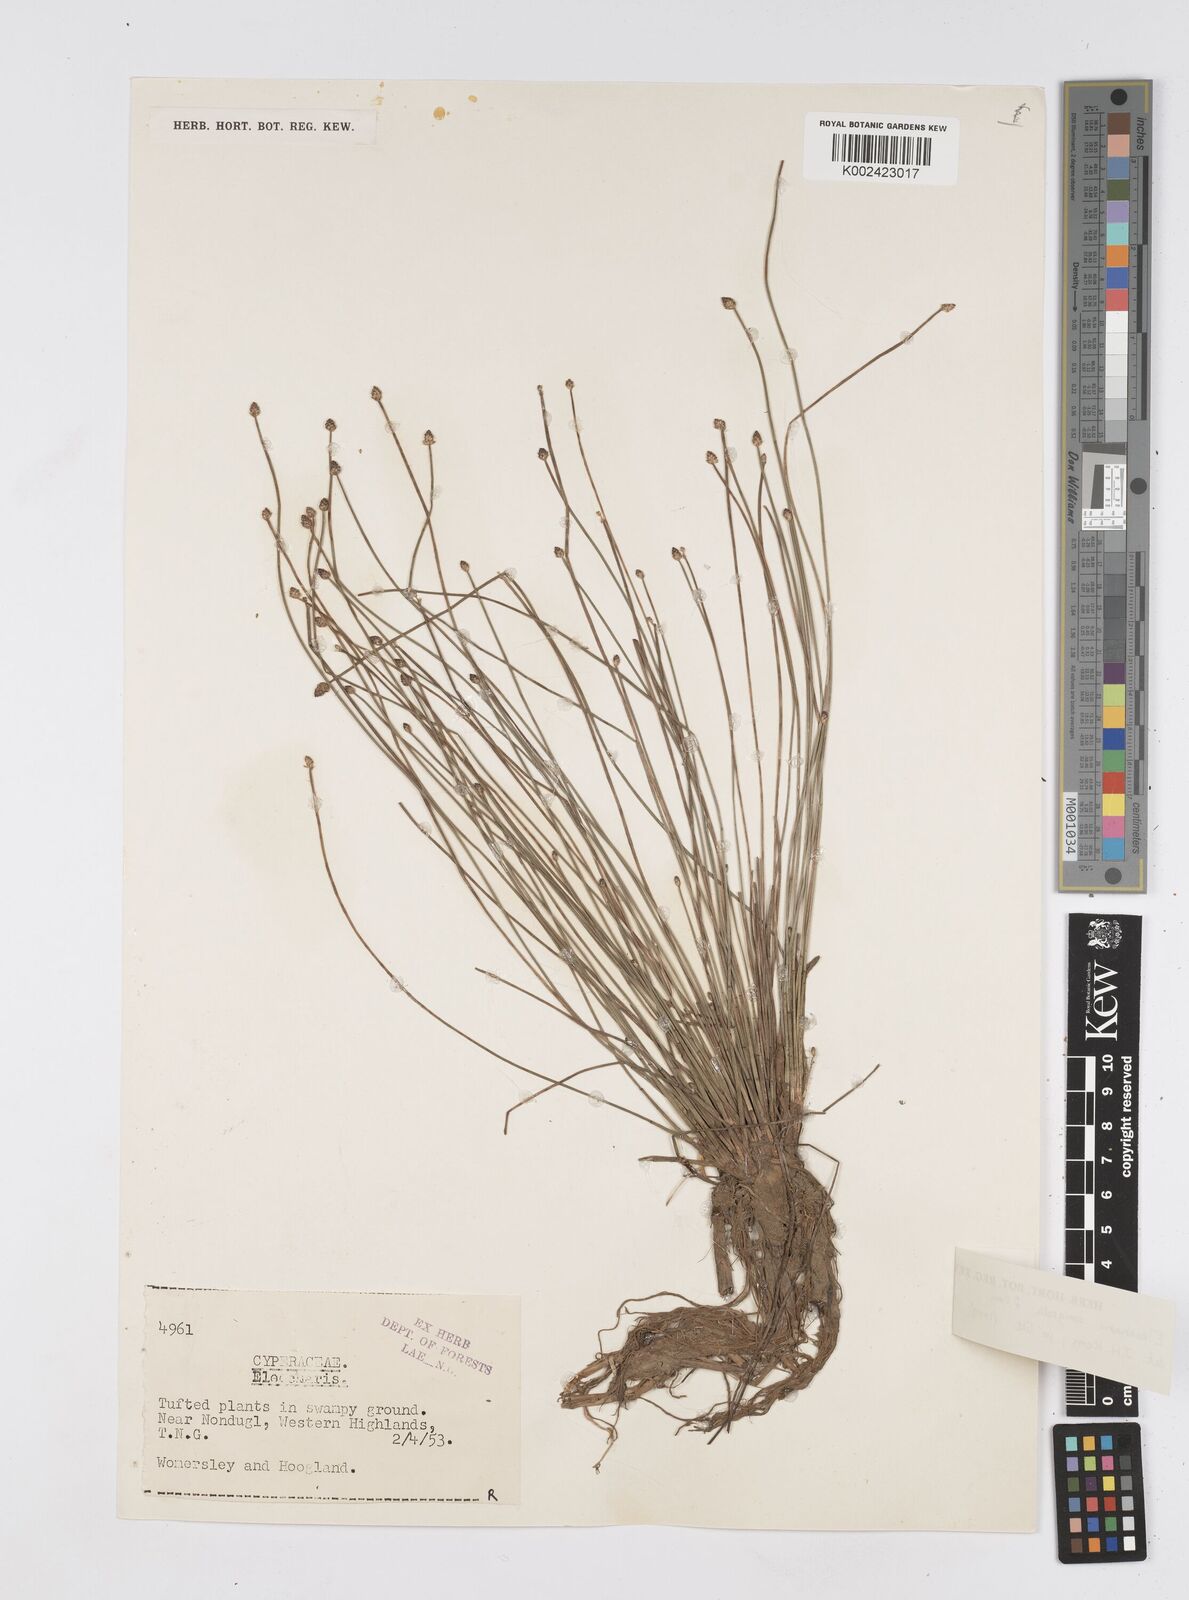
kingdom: Plantae
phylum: Tracheophyta
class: Liliopsida
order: Poales
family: Cyperaceae
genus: Eleocharis
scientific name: Eleocharis congesta
